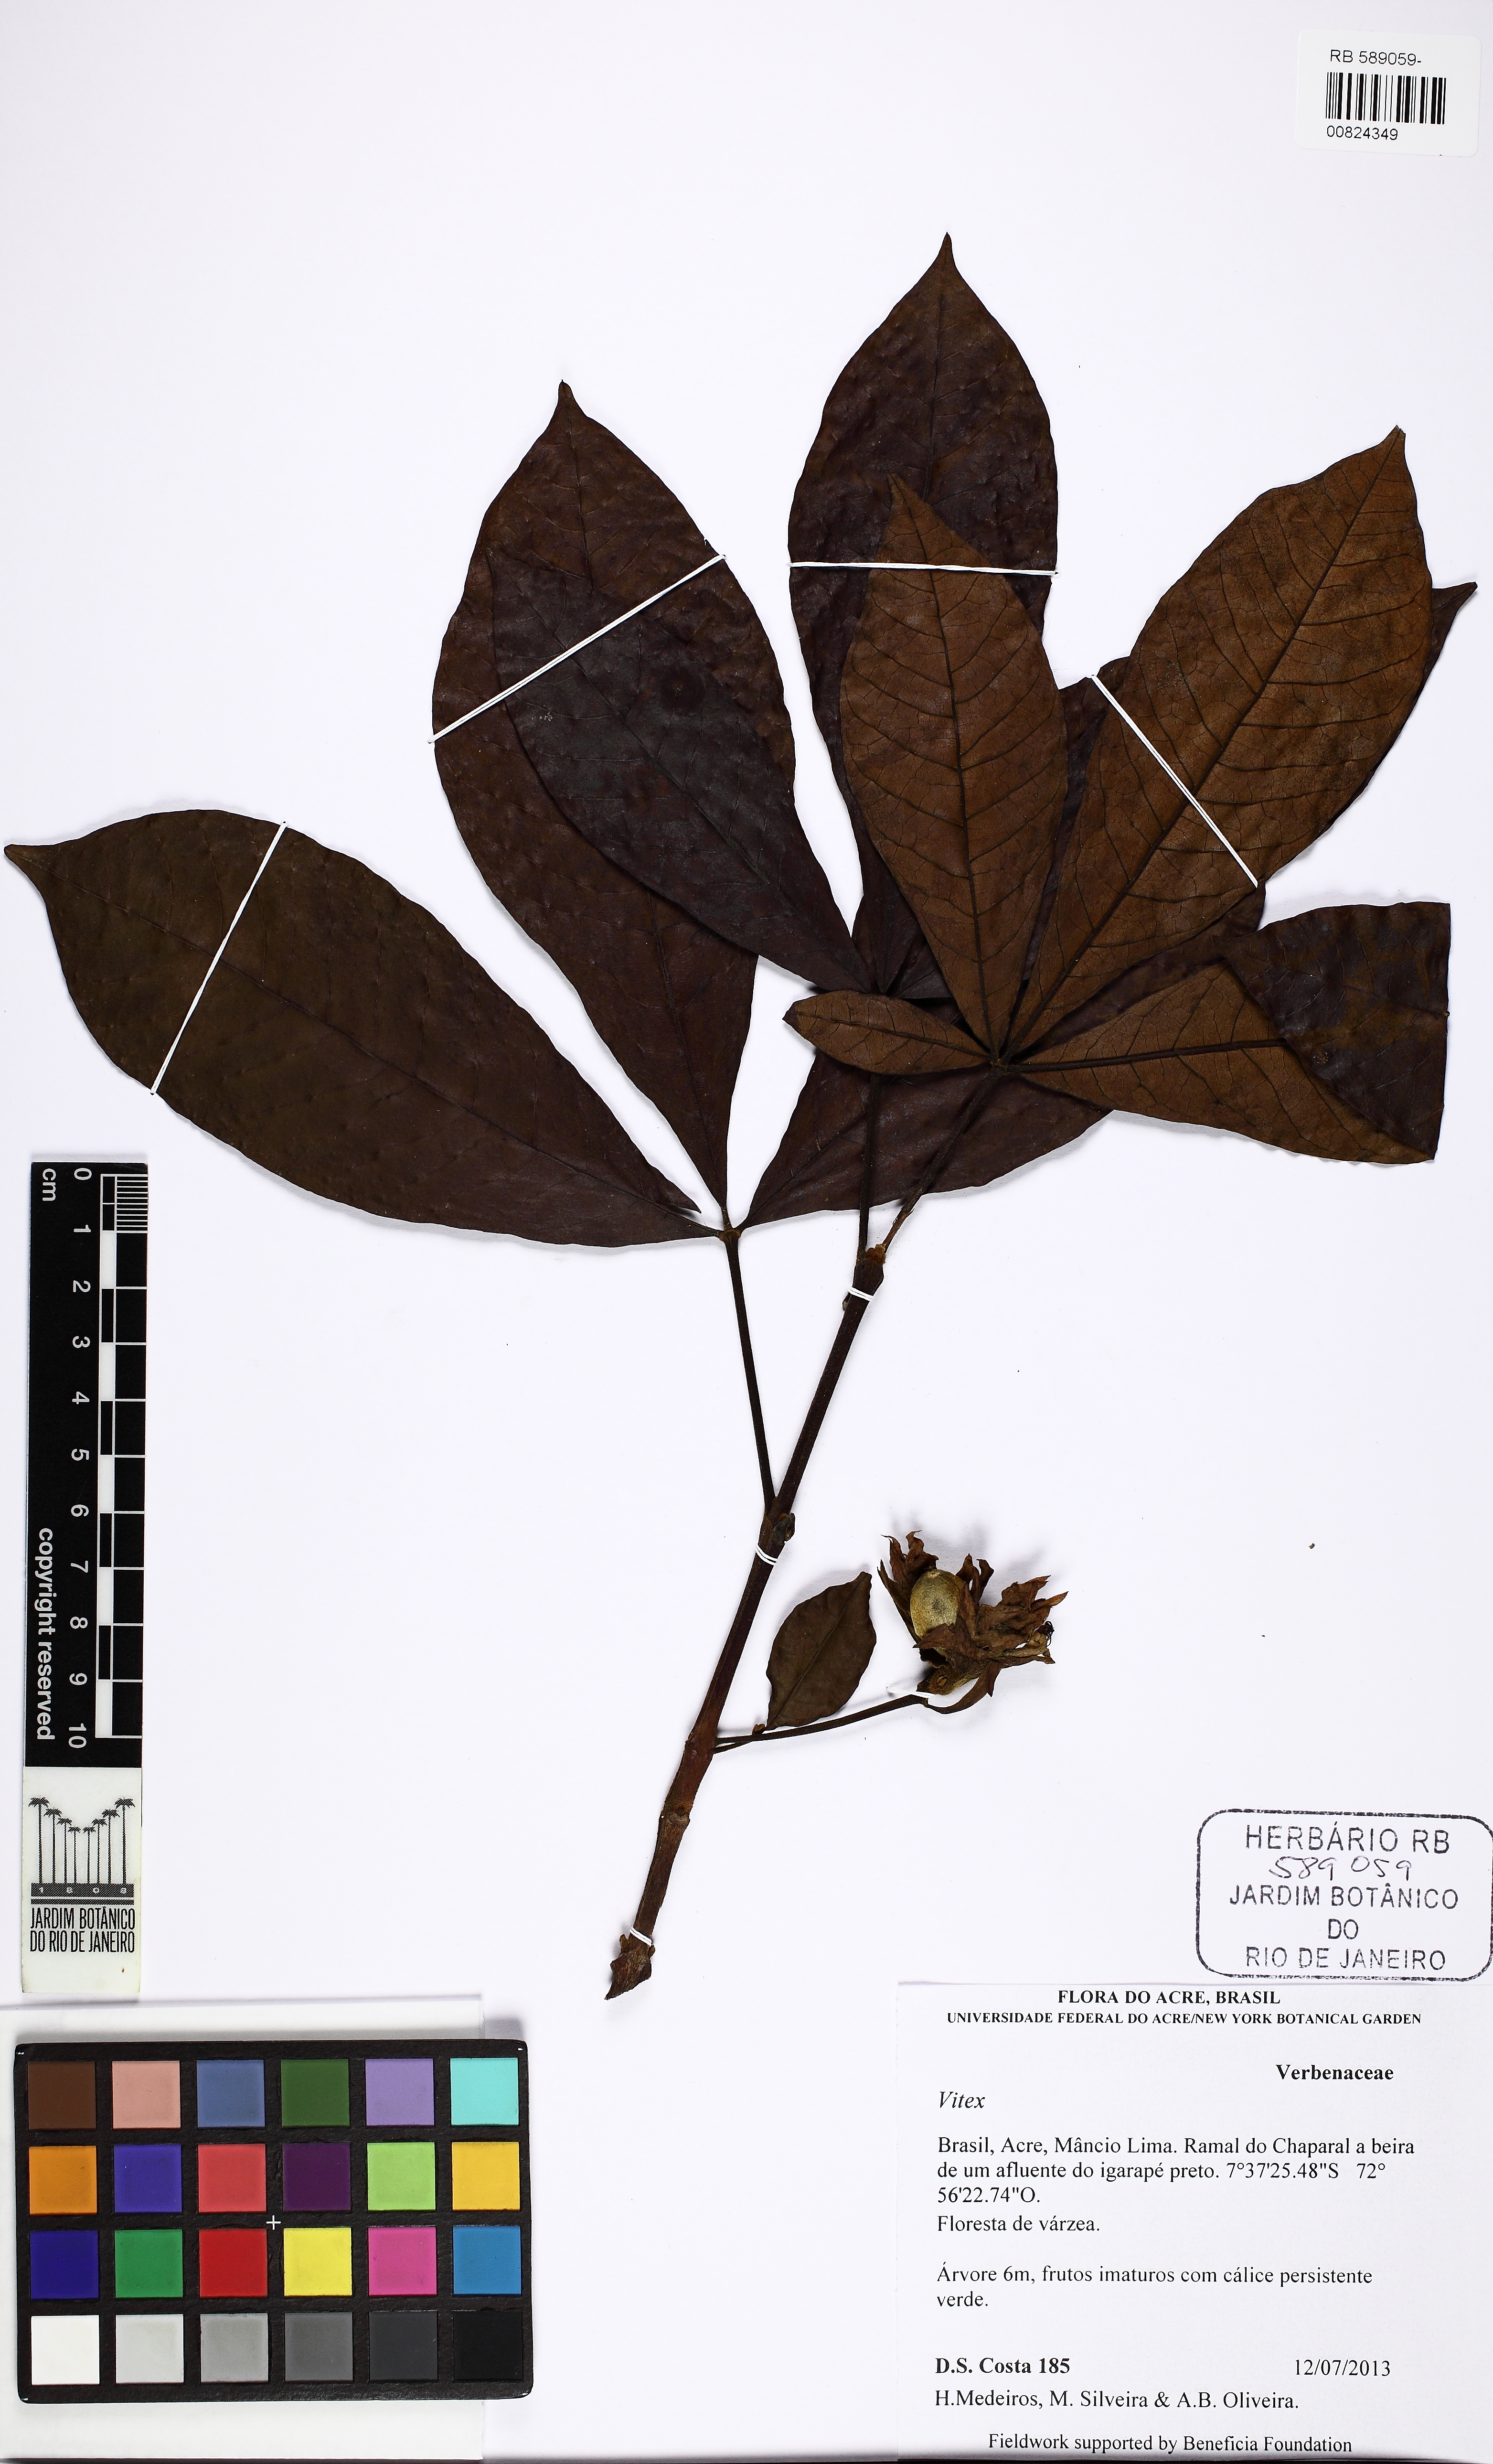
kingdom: Plantae
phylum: Tracheophyta
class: Magnoliopsida
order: Lamiales
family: Lamiaceae
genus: Vitex
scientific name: Vitex
